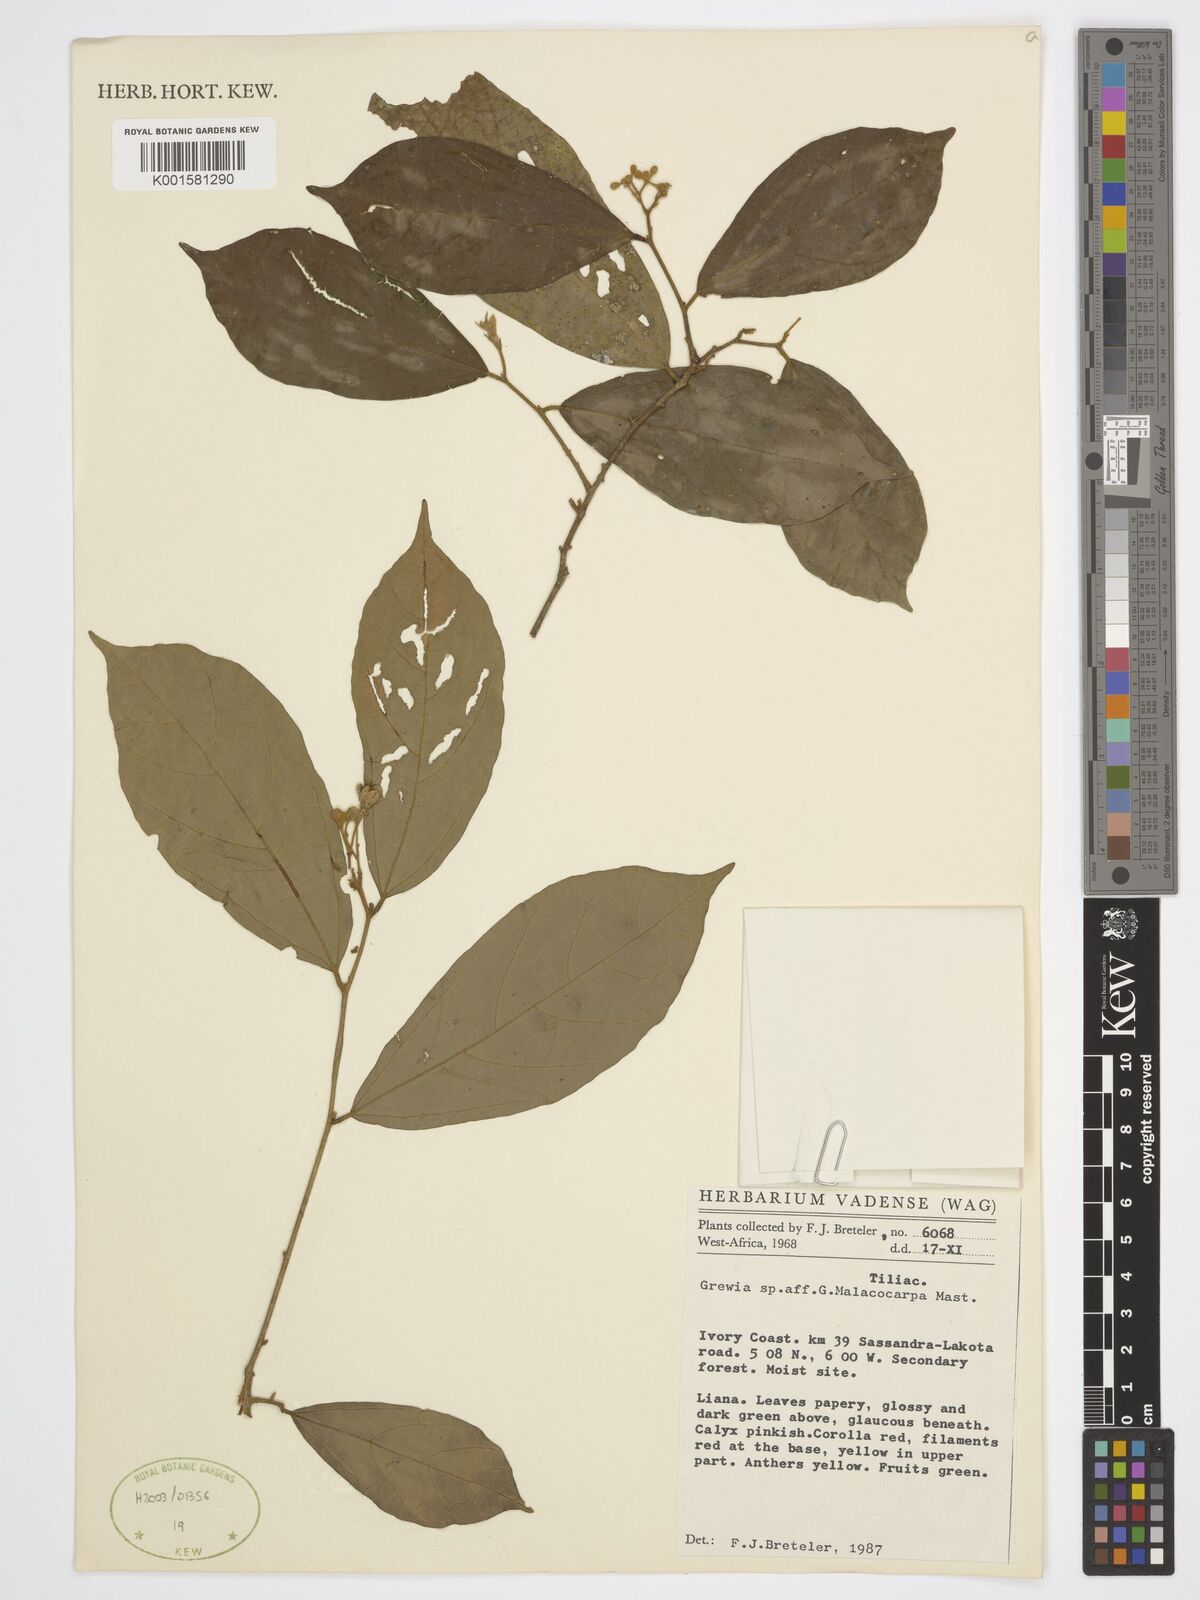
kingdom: Plantae
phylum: Tracheophyta
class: Magnoliopsida
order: Malvales
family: Malvaceae
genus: Microcos
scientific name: Microcos malacocarpa
